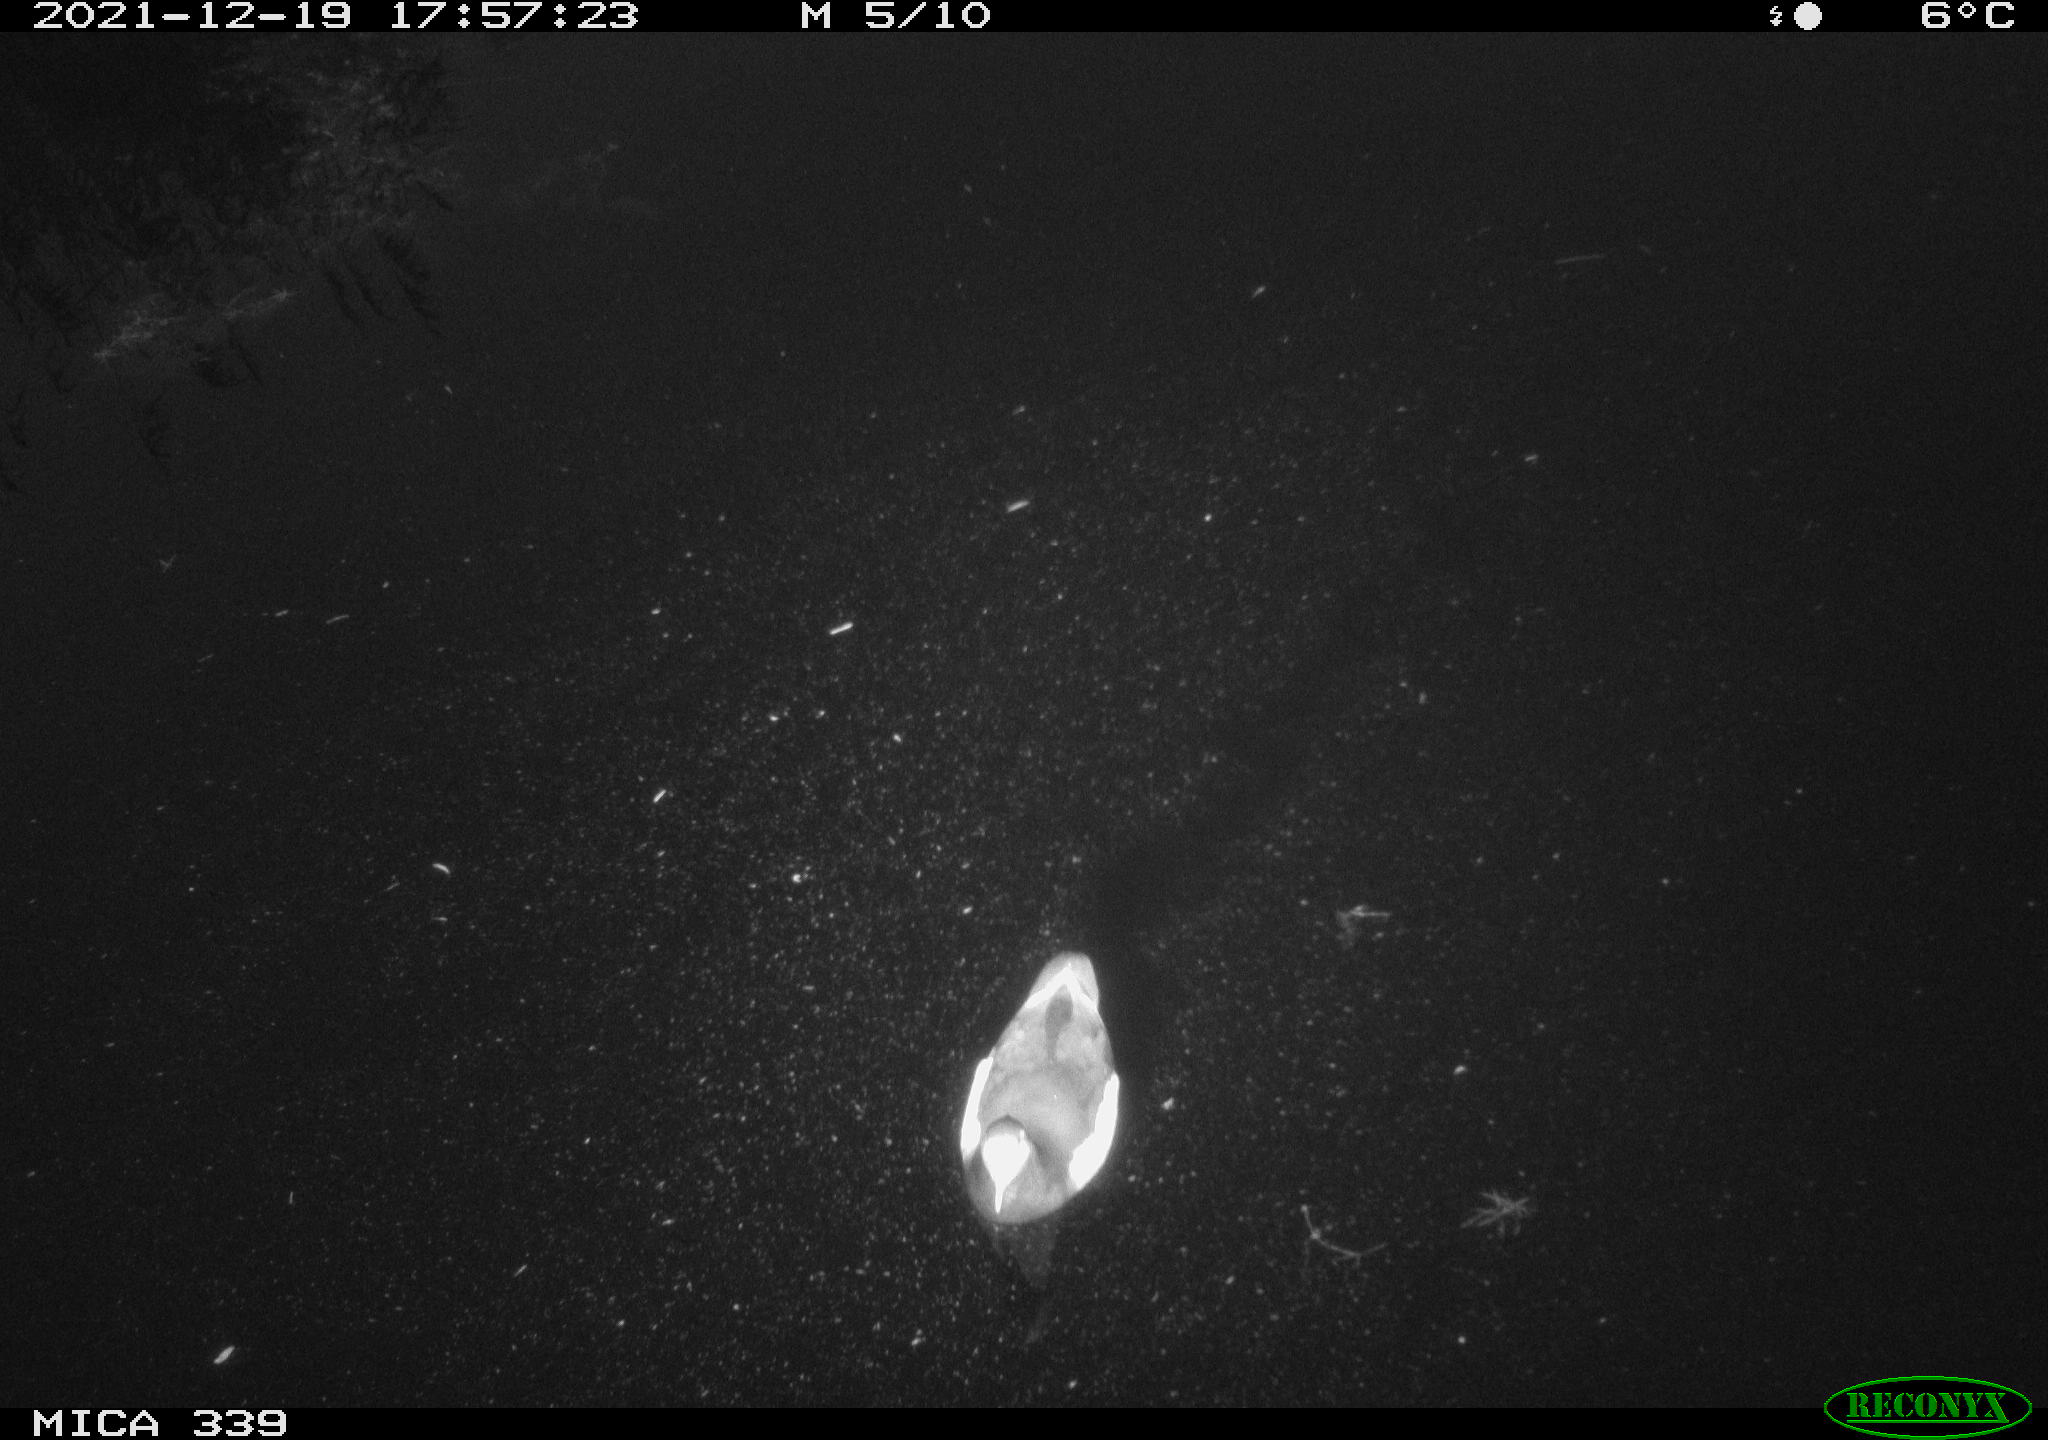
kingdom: Animalia
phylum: Chordata
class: Aves
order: Gruiformes
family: Rallidae
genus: Gallinula
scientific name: Gallinula chloropus
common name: Common moorhen
